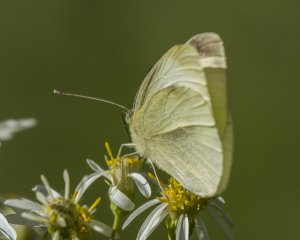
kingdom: Animalia
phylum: Arthropoda
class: Insecta
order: Lepidoptera
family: Pieridae
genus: Pieris
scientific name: Pieris rapae
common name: Cabbage White
